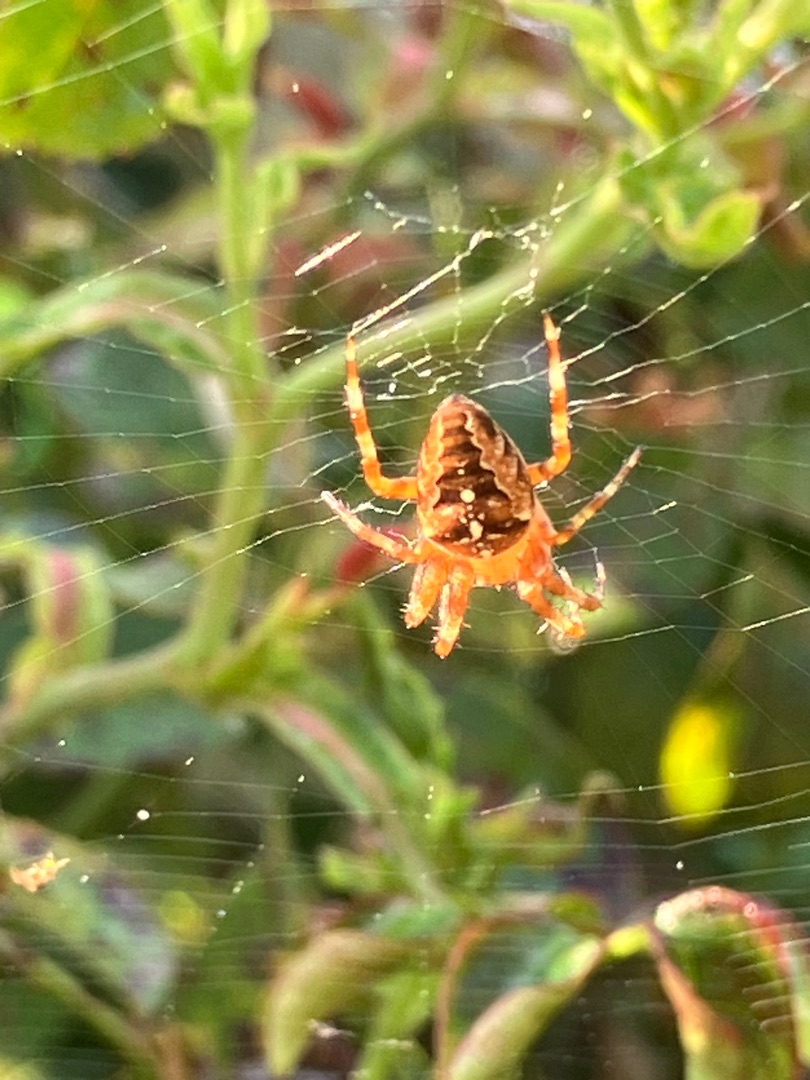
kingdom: Animalia
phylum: Arthropoda
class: Arachnida
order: Araneae
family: Araneidae
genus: Araneus
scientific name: Araneus diadematus
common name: Korsedderkop
